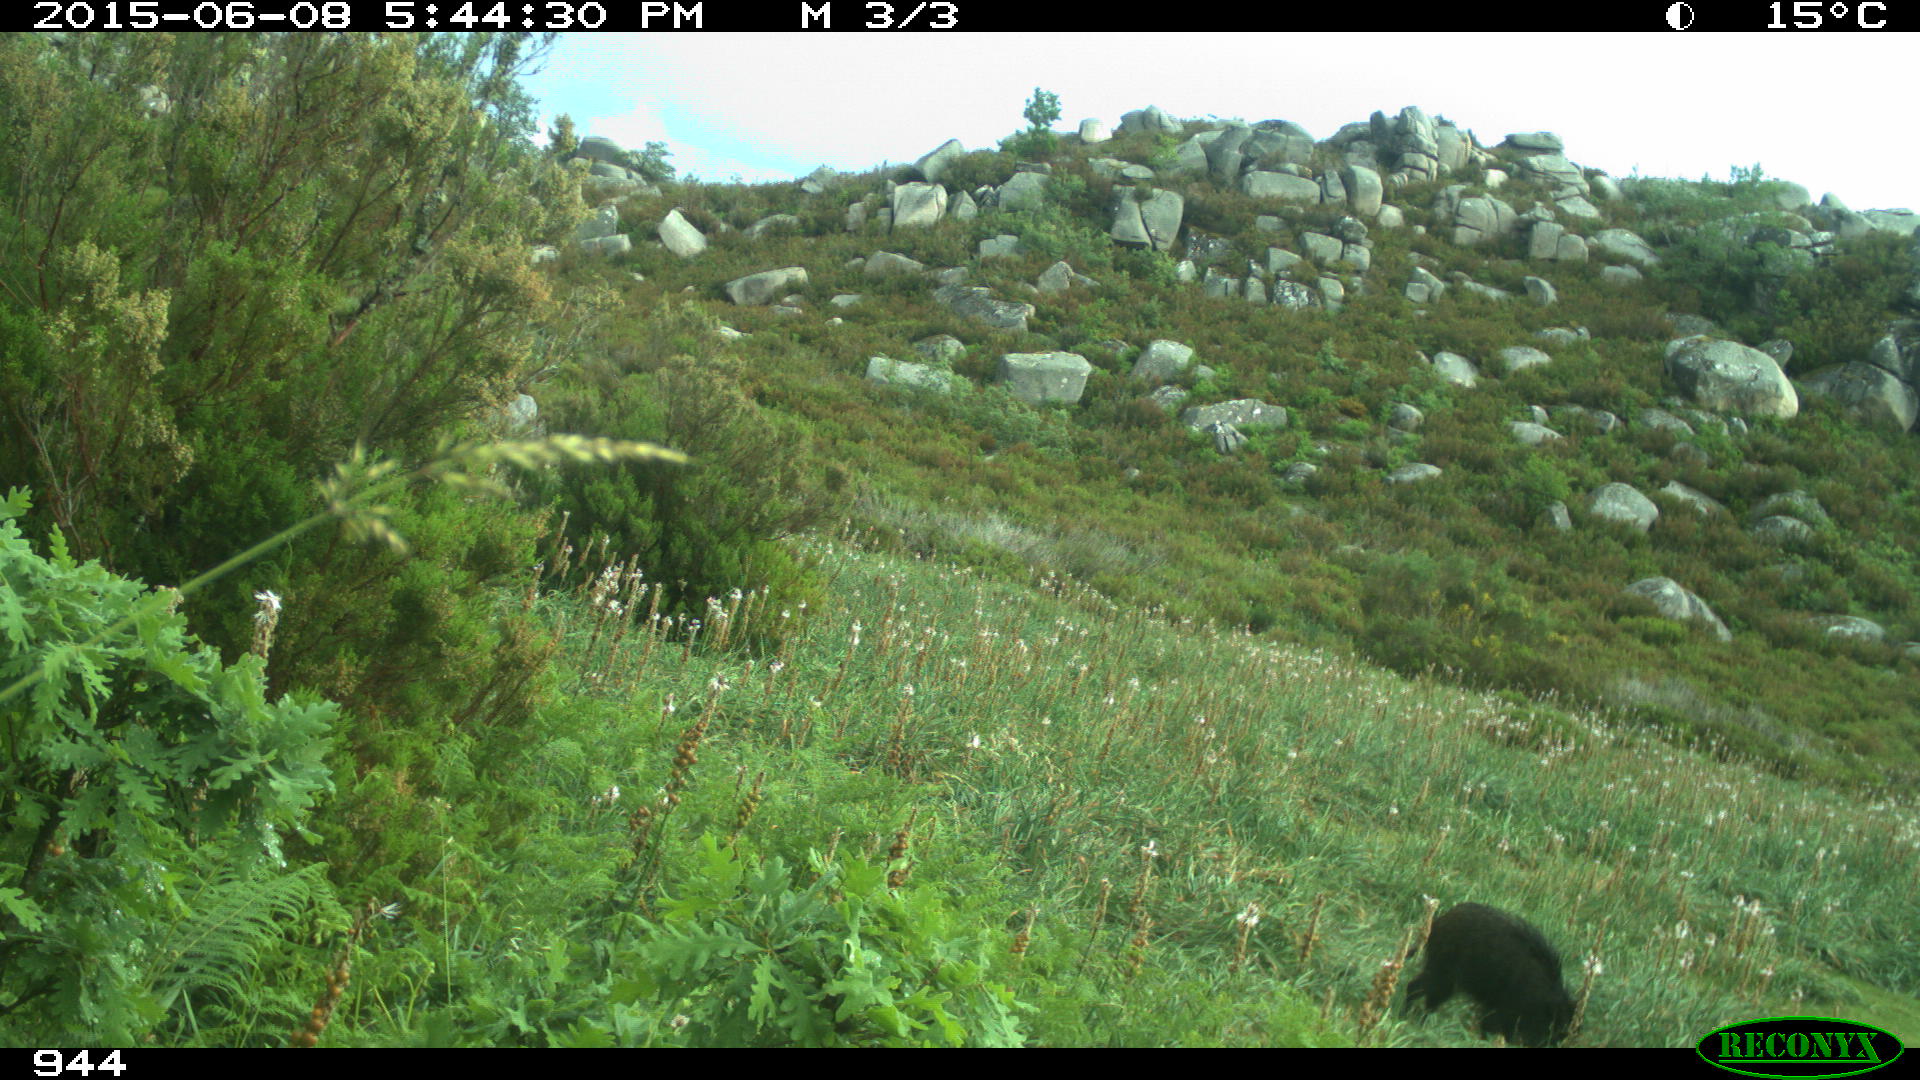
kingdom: Animalia
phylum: Chordata
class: Mammalia
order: Artiodactyla
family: Suidae
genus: Sus
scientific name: Sus scrofa
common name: Wild boar
